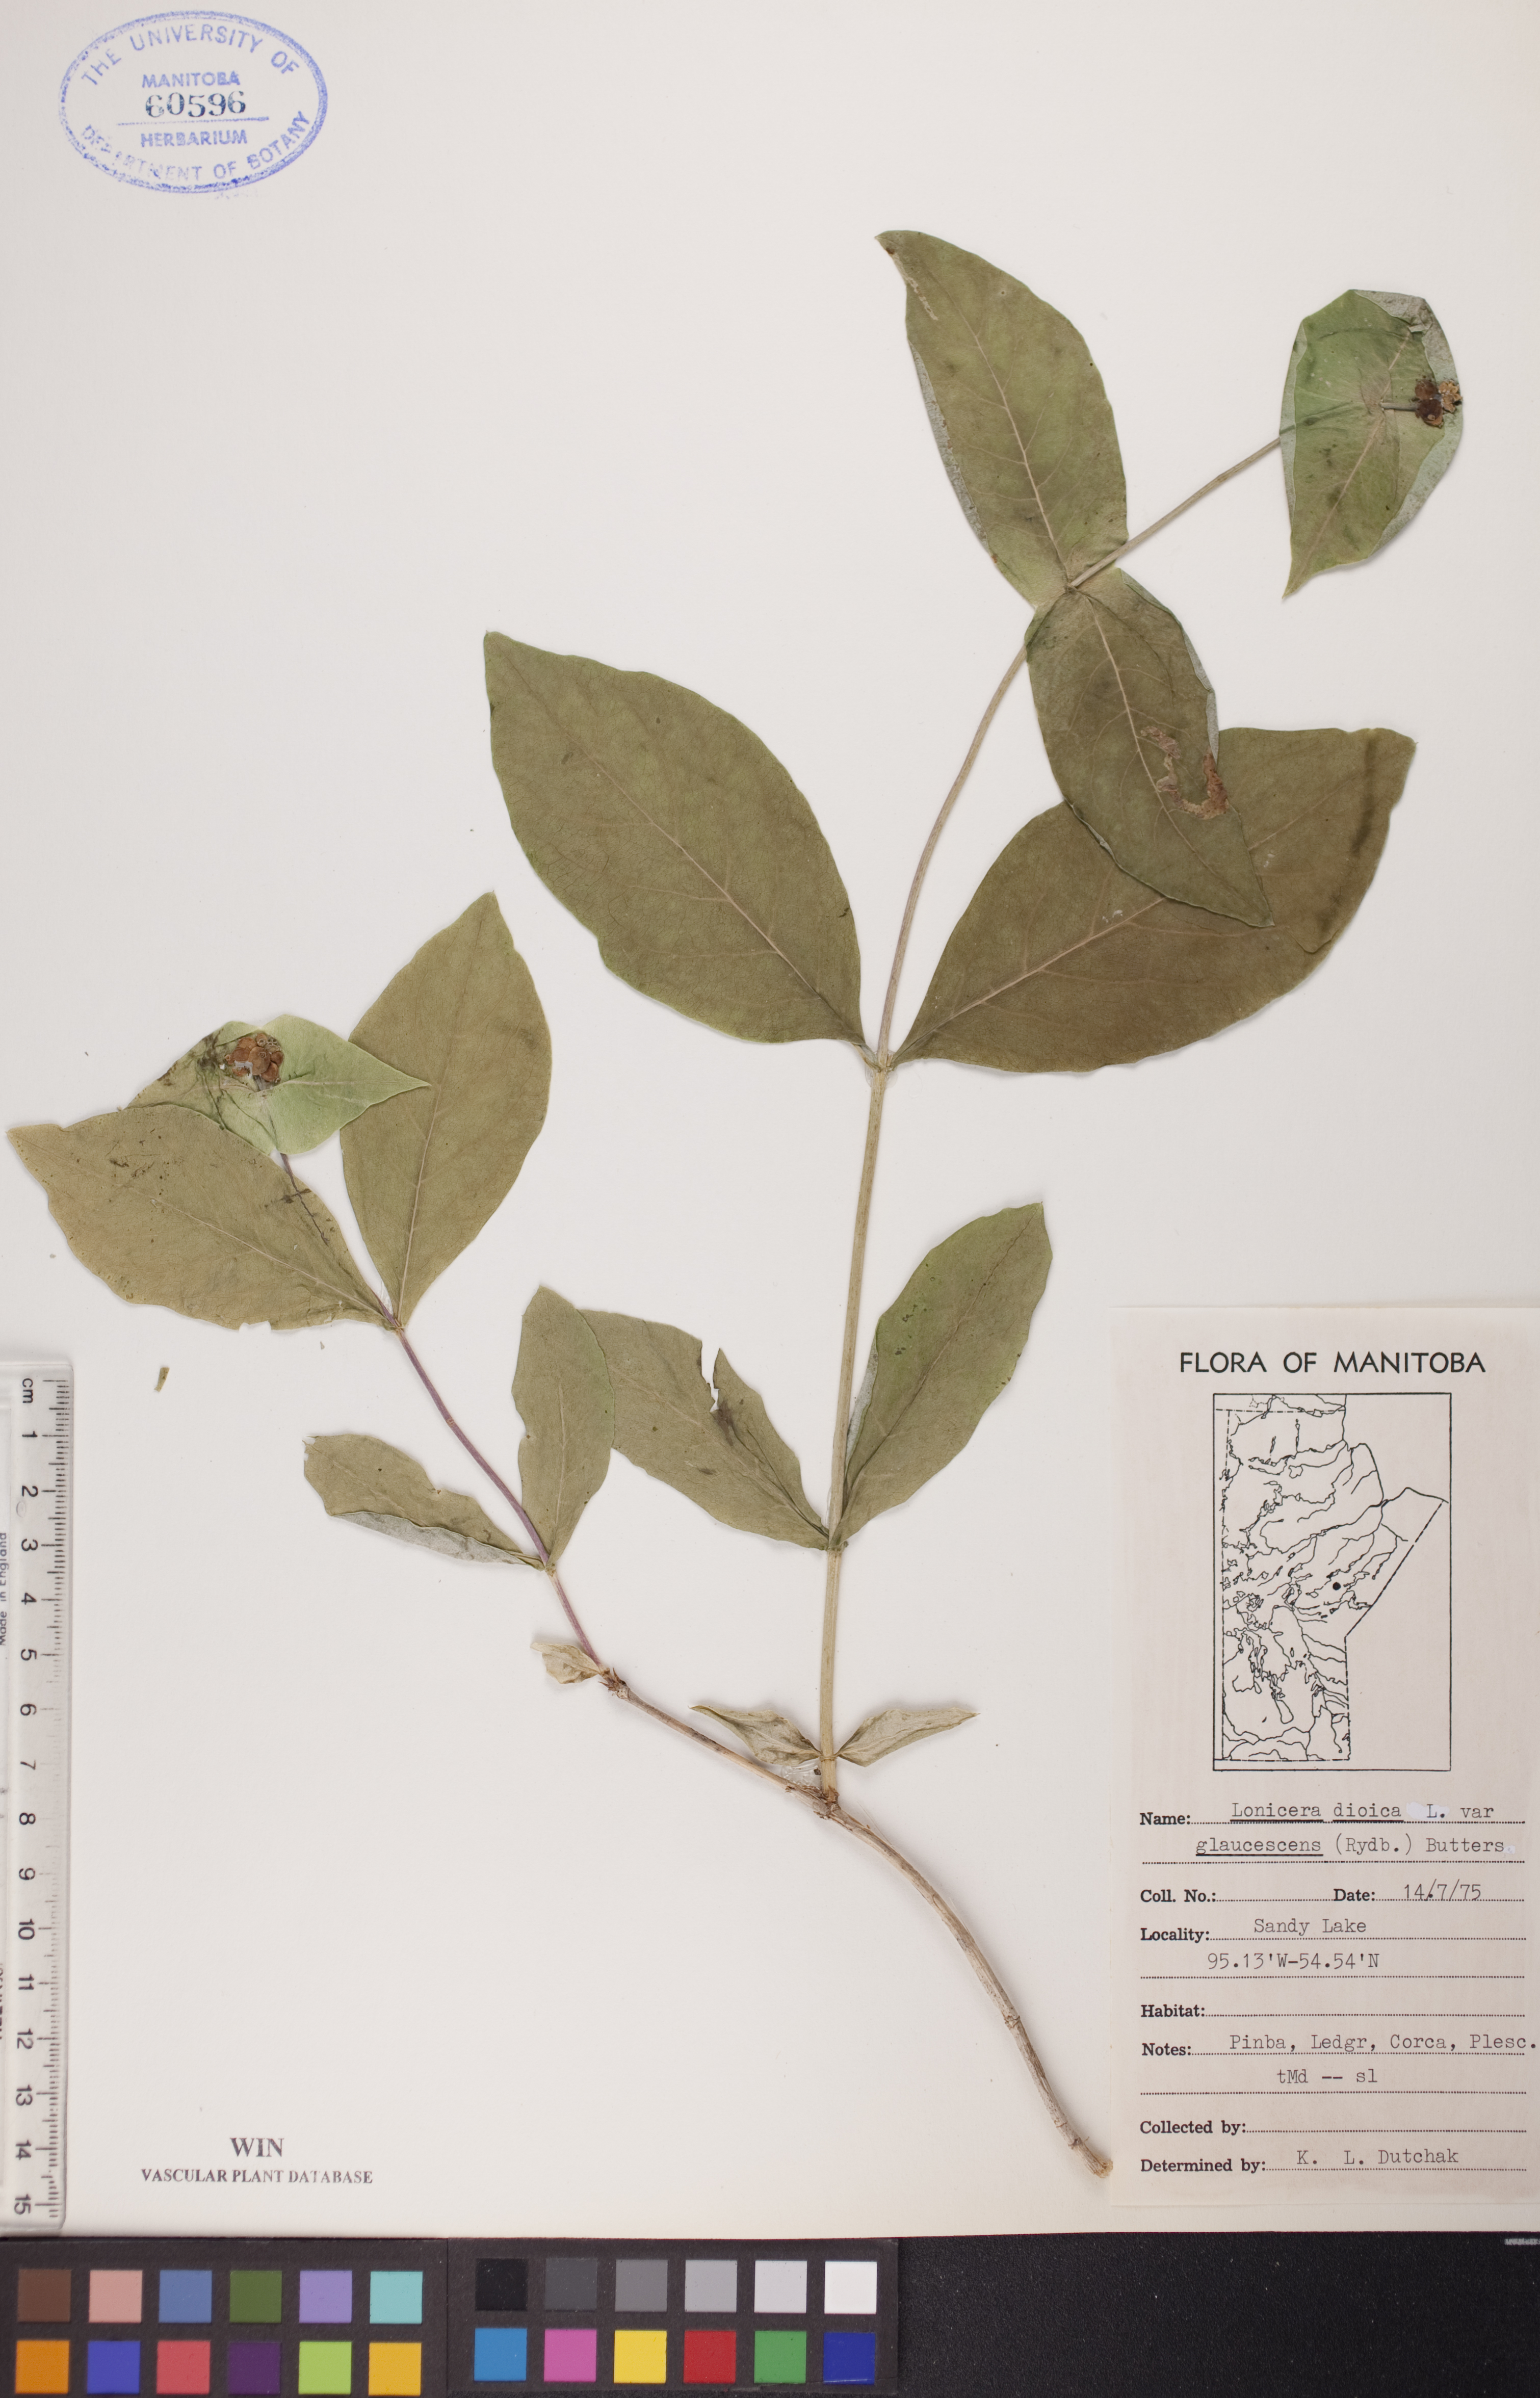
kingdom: Plantae
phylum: Tracheophyta
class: Magnoliopsida
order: Dipsacales
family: Caprifoliaceae
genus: Lonicera
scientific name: Lonicera dioica
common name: Limber honeysuckle
